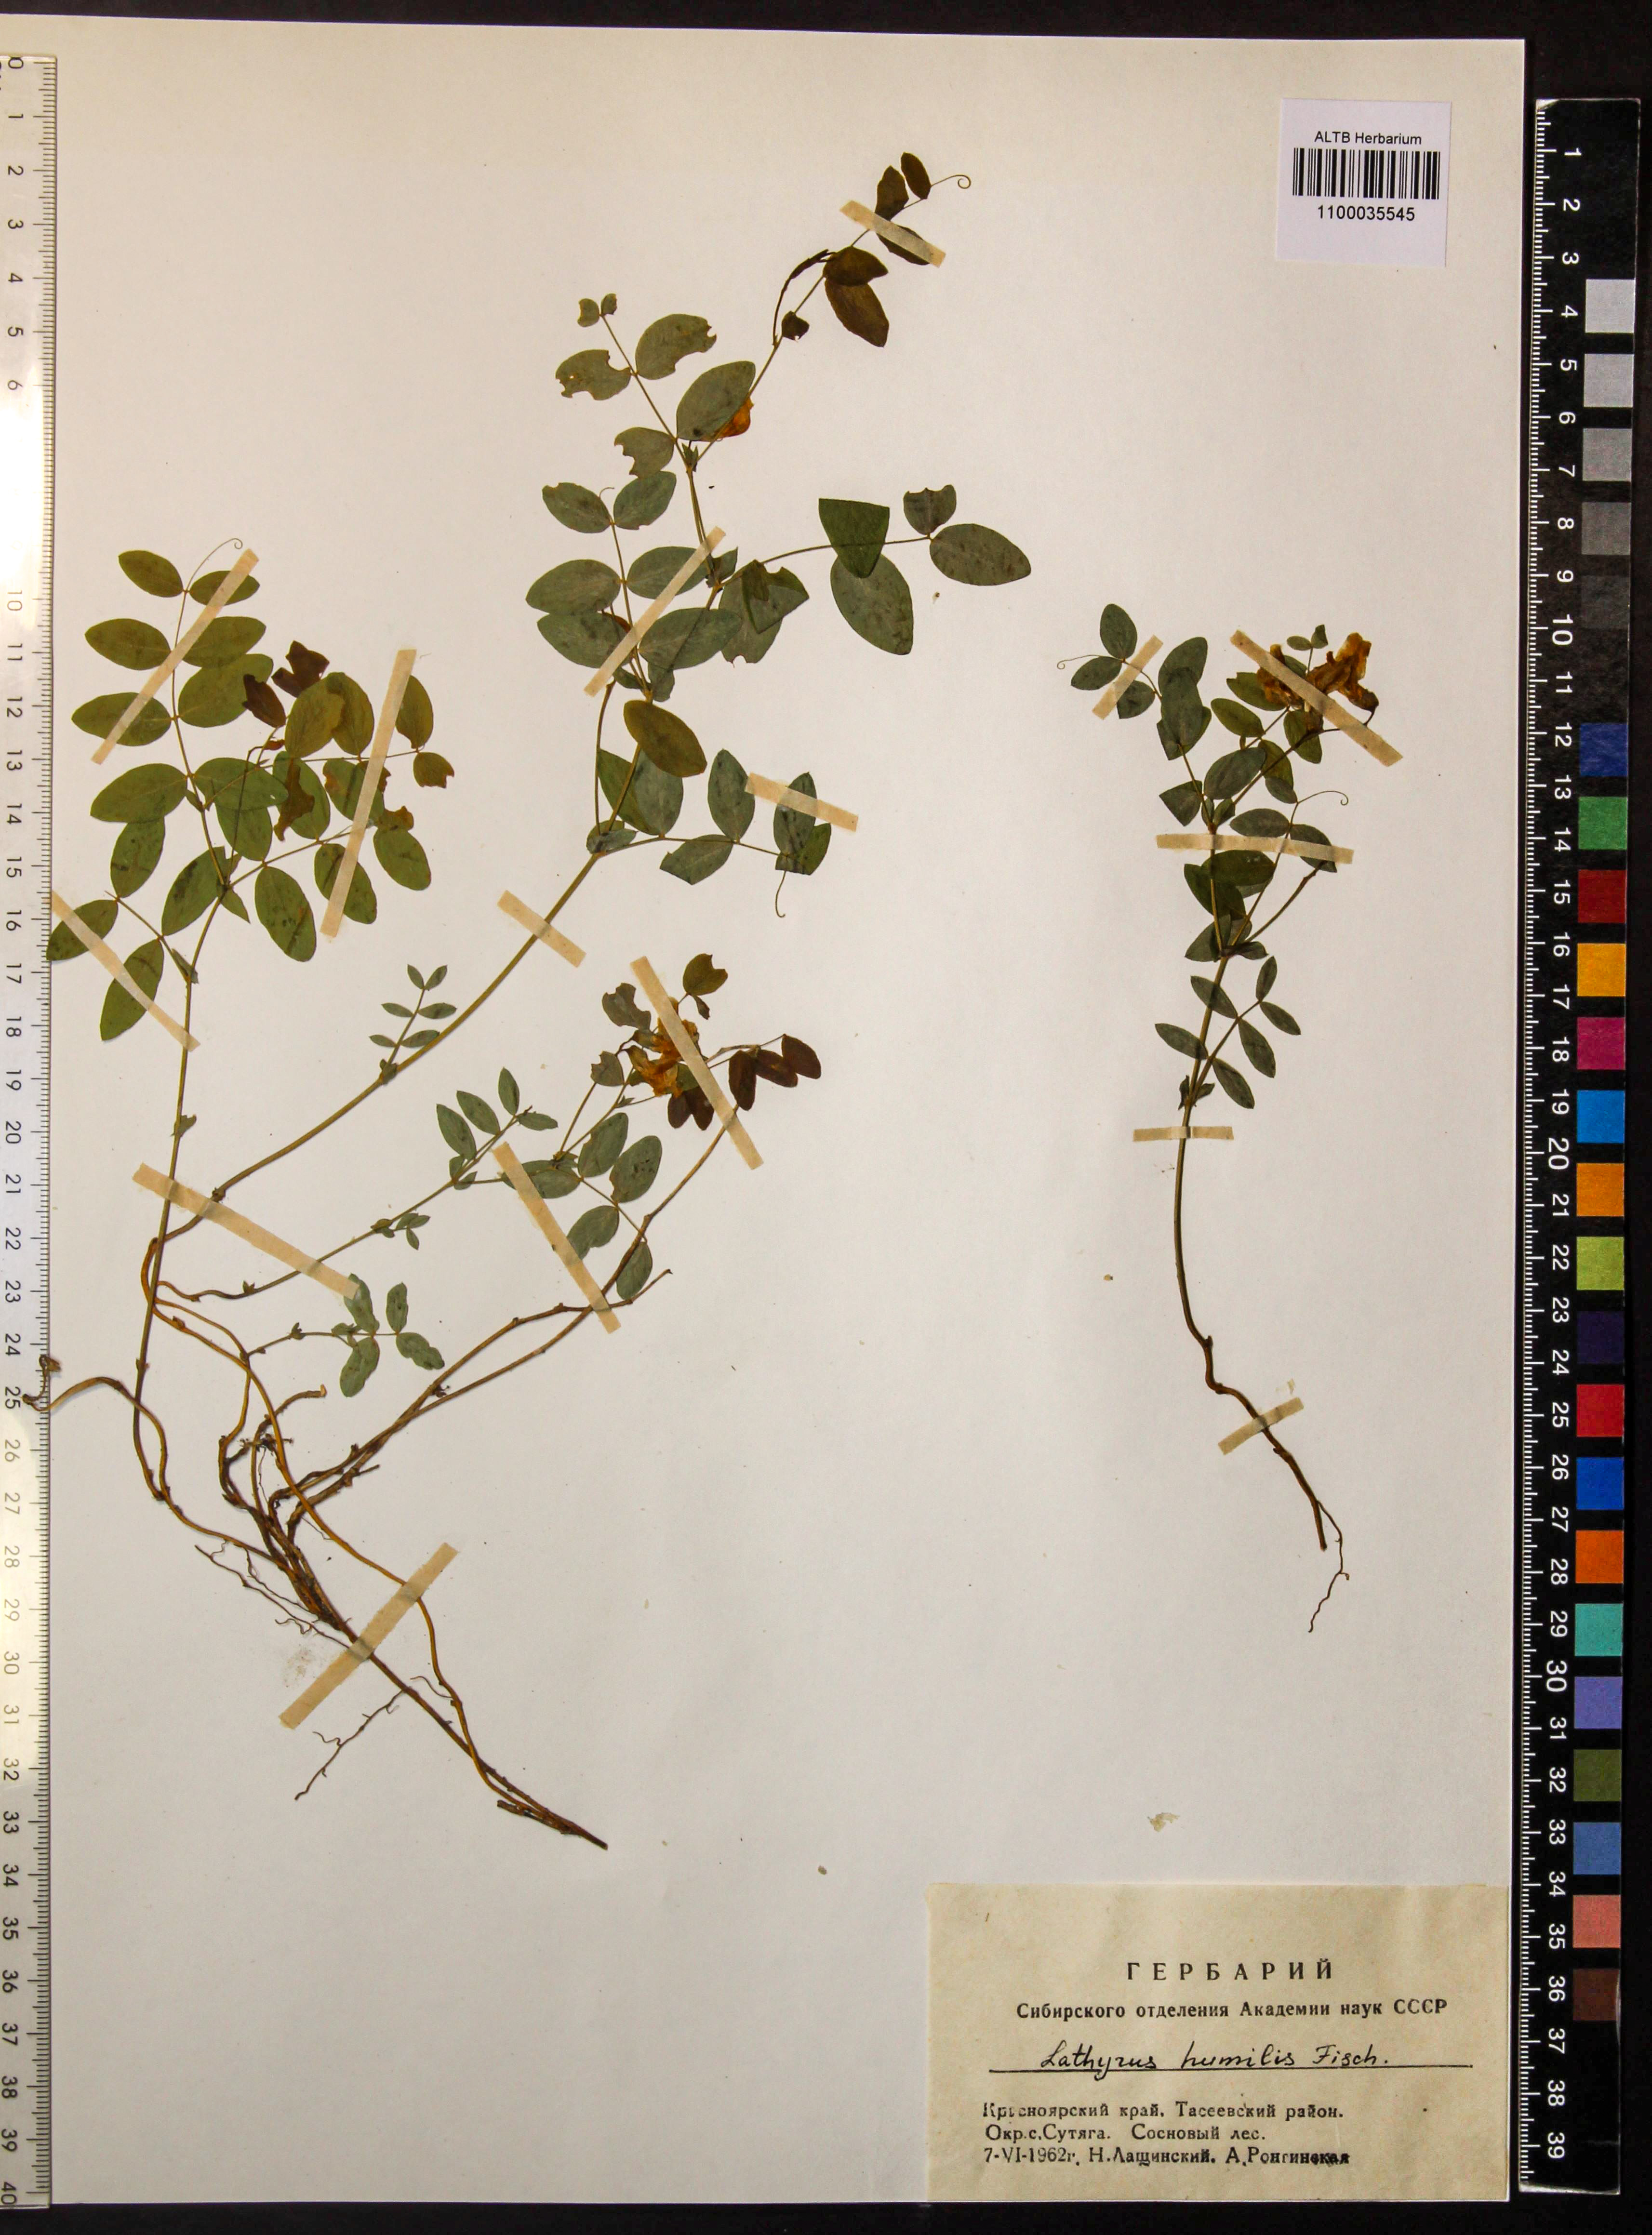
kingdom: Plantae
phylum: Tracheophyta
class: Magnoliopsida
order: Fabales
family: Fabaceae
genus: Lathyrus
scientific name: Lathyrus humilis
